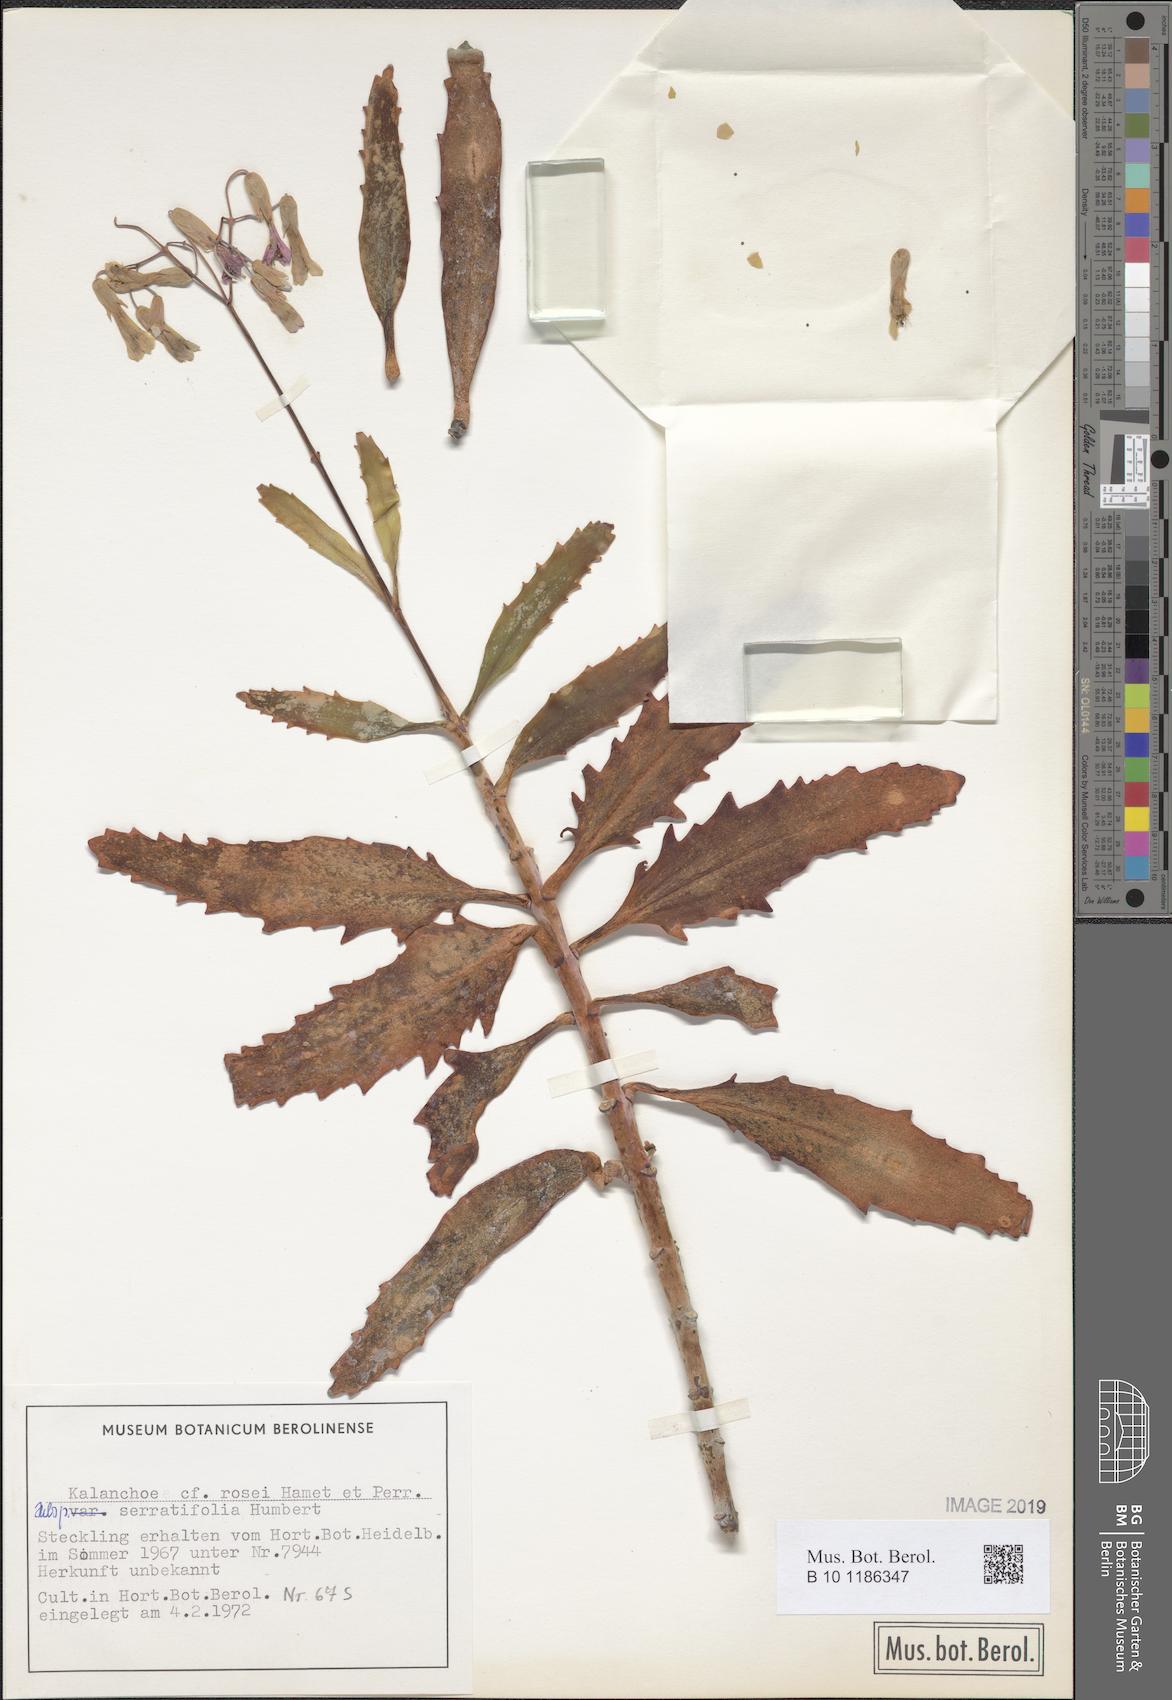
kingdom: Plantae
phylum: Tracheophyta
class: Magnoliopsida
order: Saxifragales
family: Crassulaceae
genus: Kalanchoe
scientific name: Kalanchoe rosei
